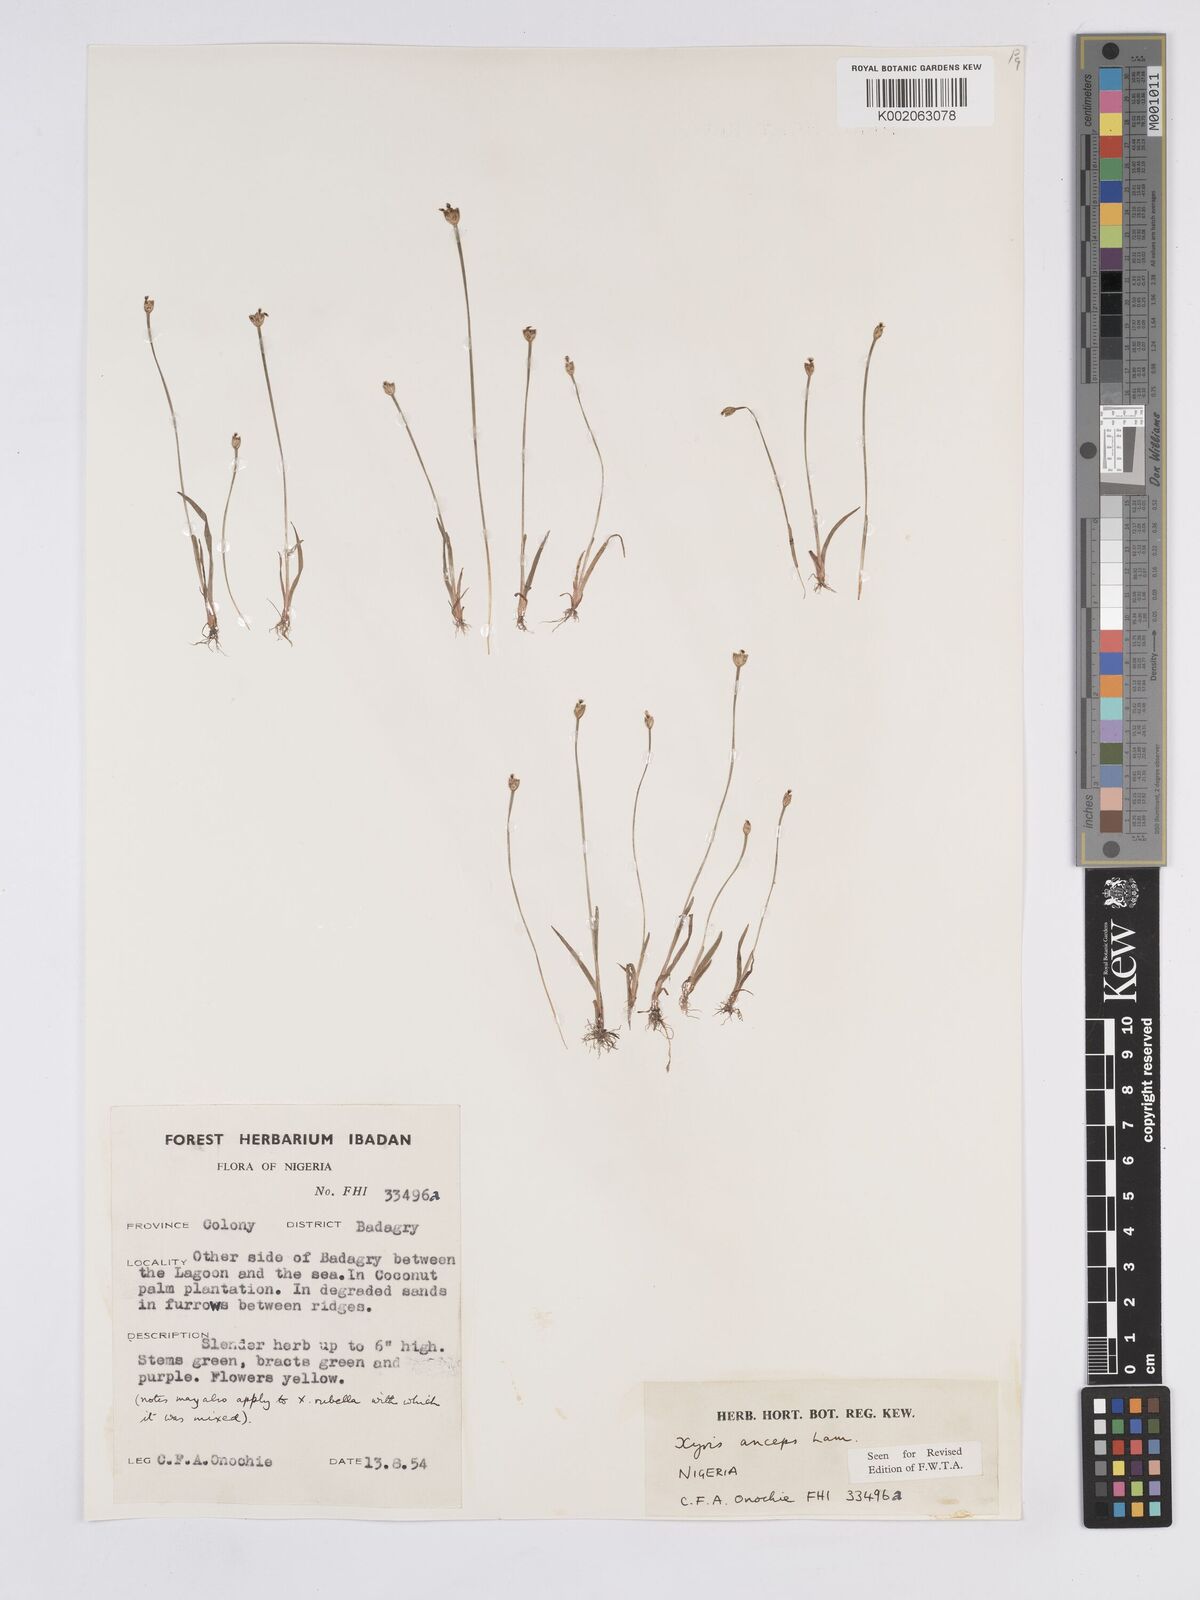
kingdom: Plantae
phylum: Tracheophyta
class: Liliopsida
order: Poales
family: Xyridaceae
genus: Xyris
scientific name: Xyris anceps
